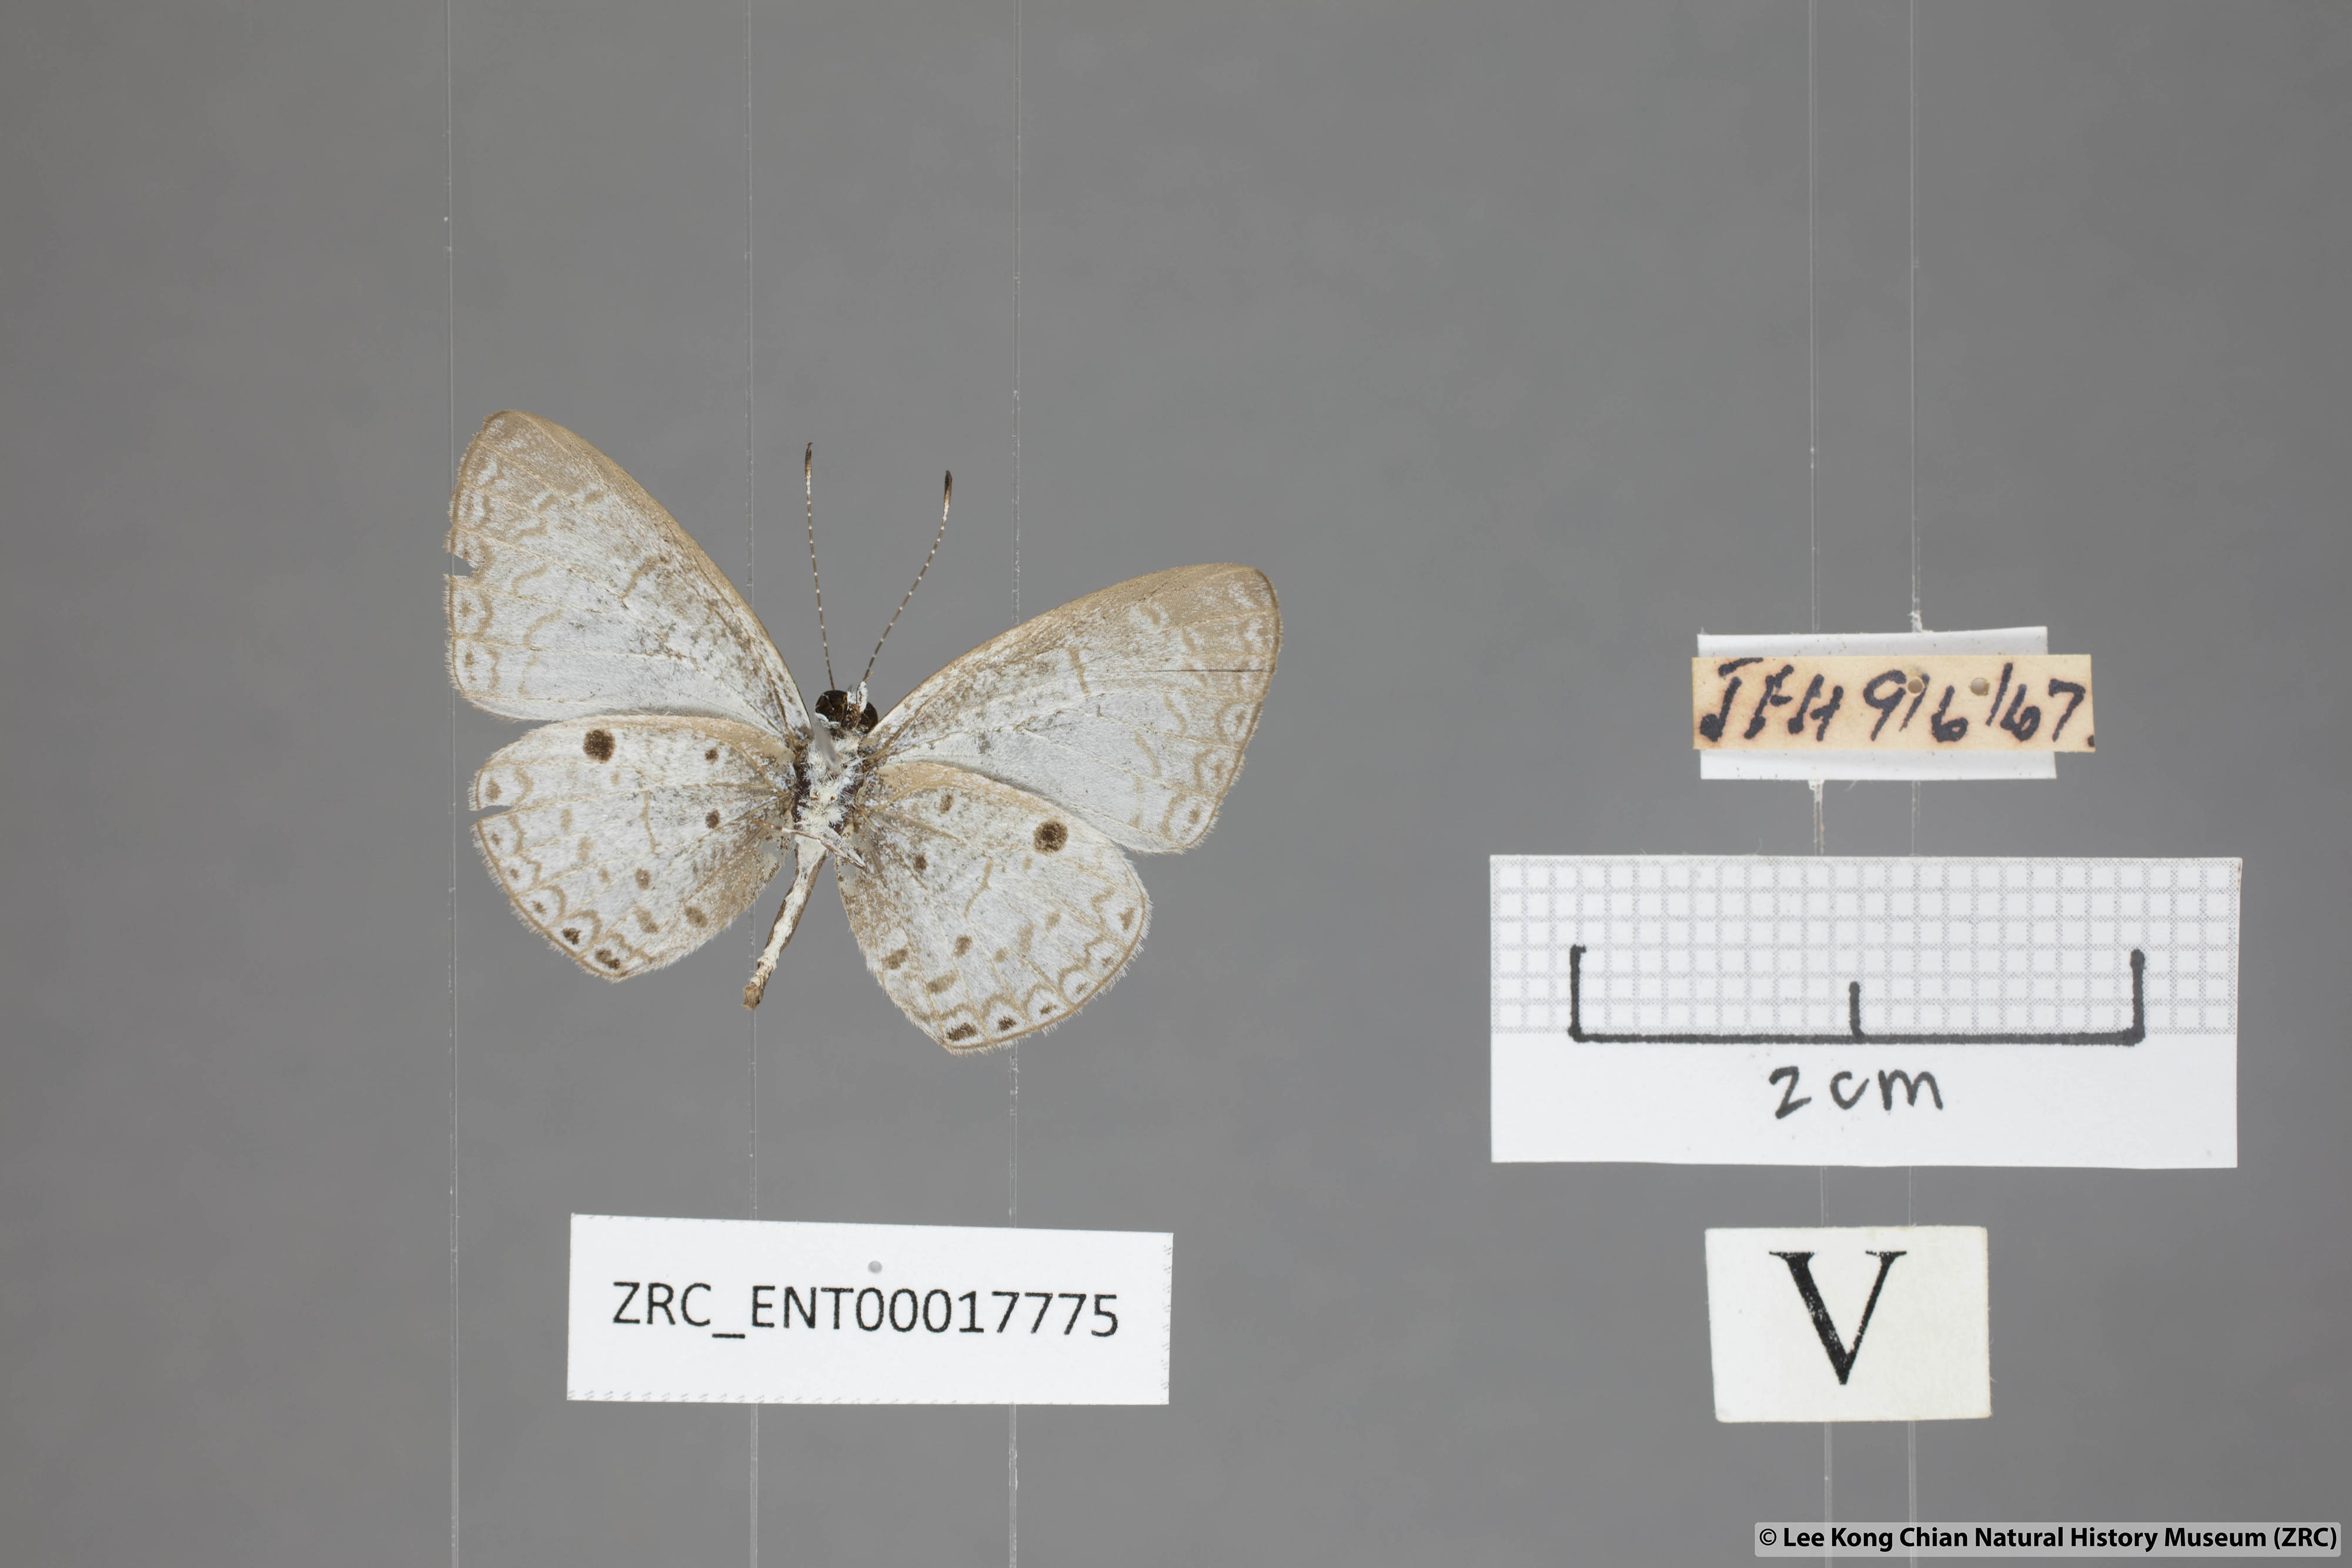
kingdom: Animalia
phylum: Arthropoda
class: Insecta
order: Lepidoptera
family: Lycaenidae
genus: Callenya
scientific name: Callenya lenya
